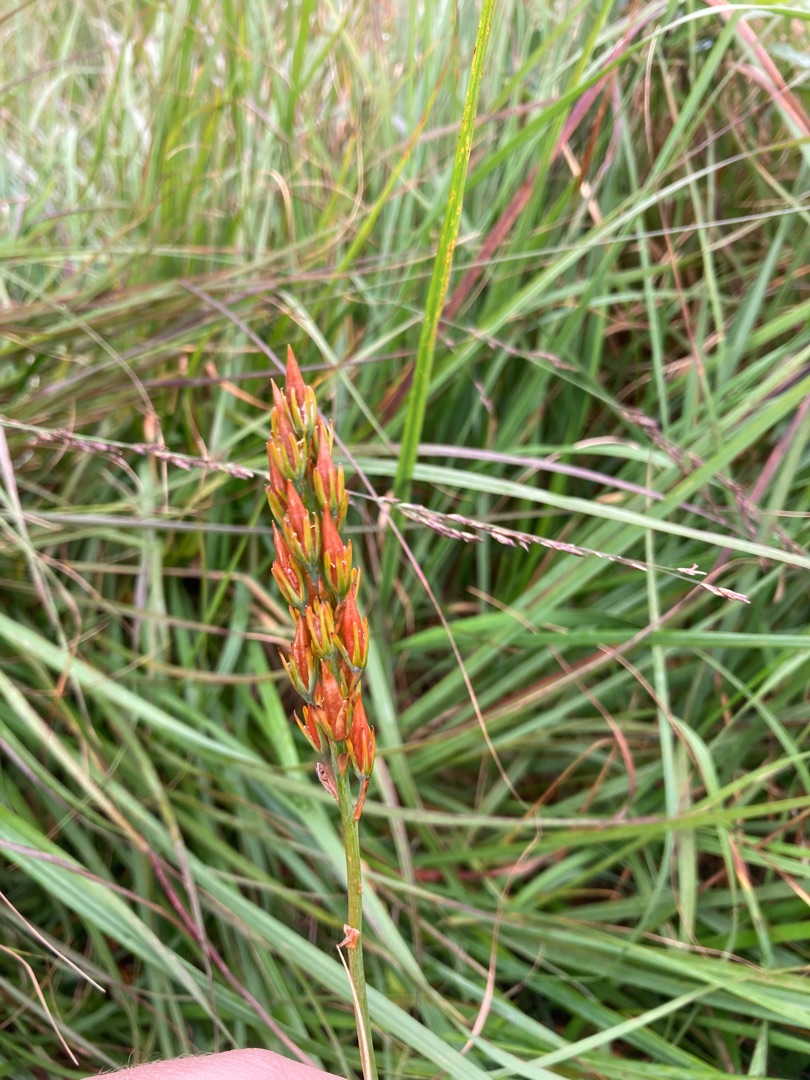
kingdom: Plantae
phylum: Tracheophyta
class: Liliopsida
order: Dioscoreales
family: Nartheciaceae
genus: Narthecium
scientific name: Narthecium ossifragum
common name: Benbræk
